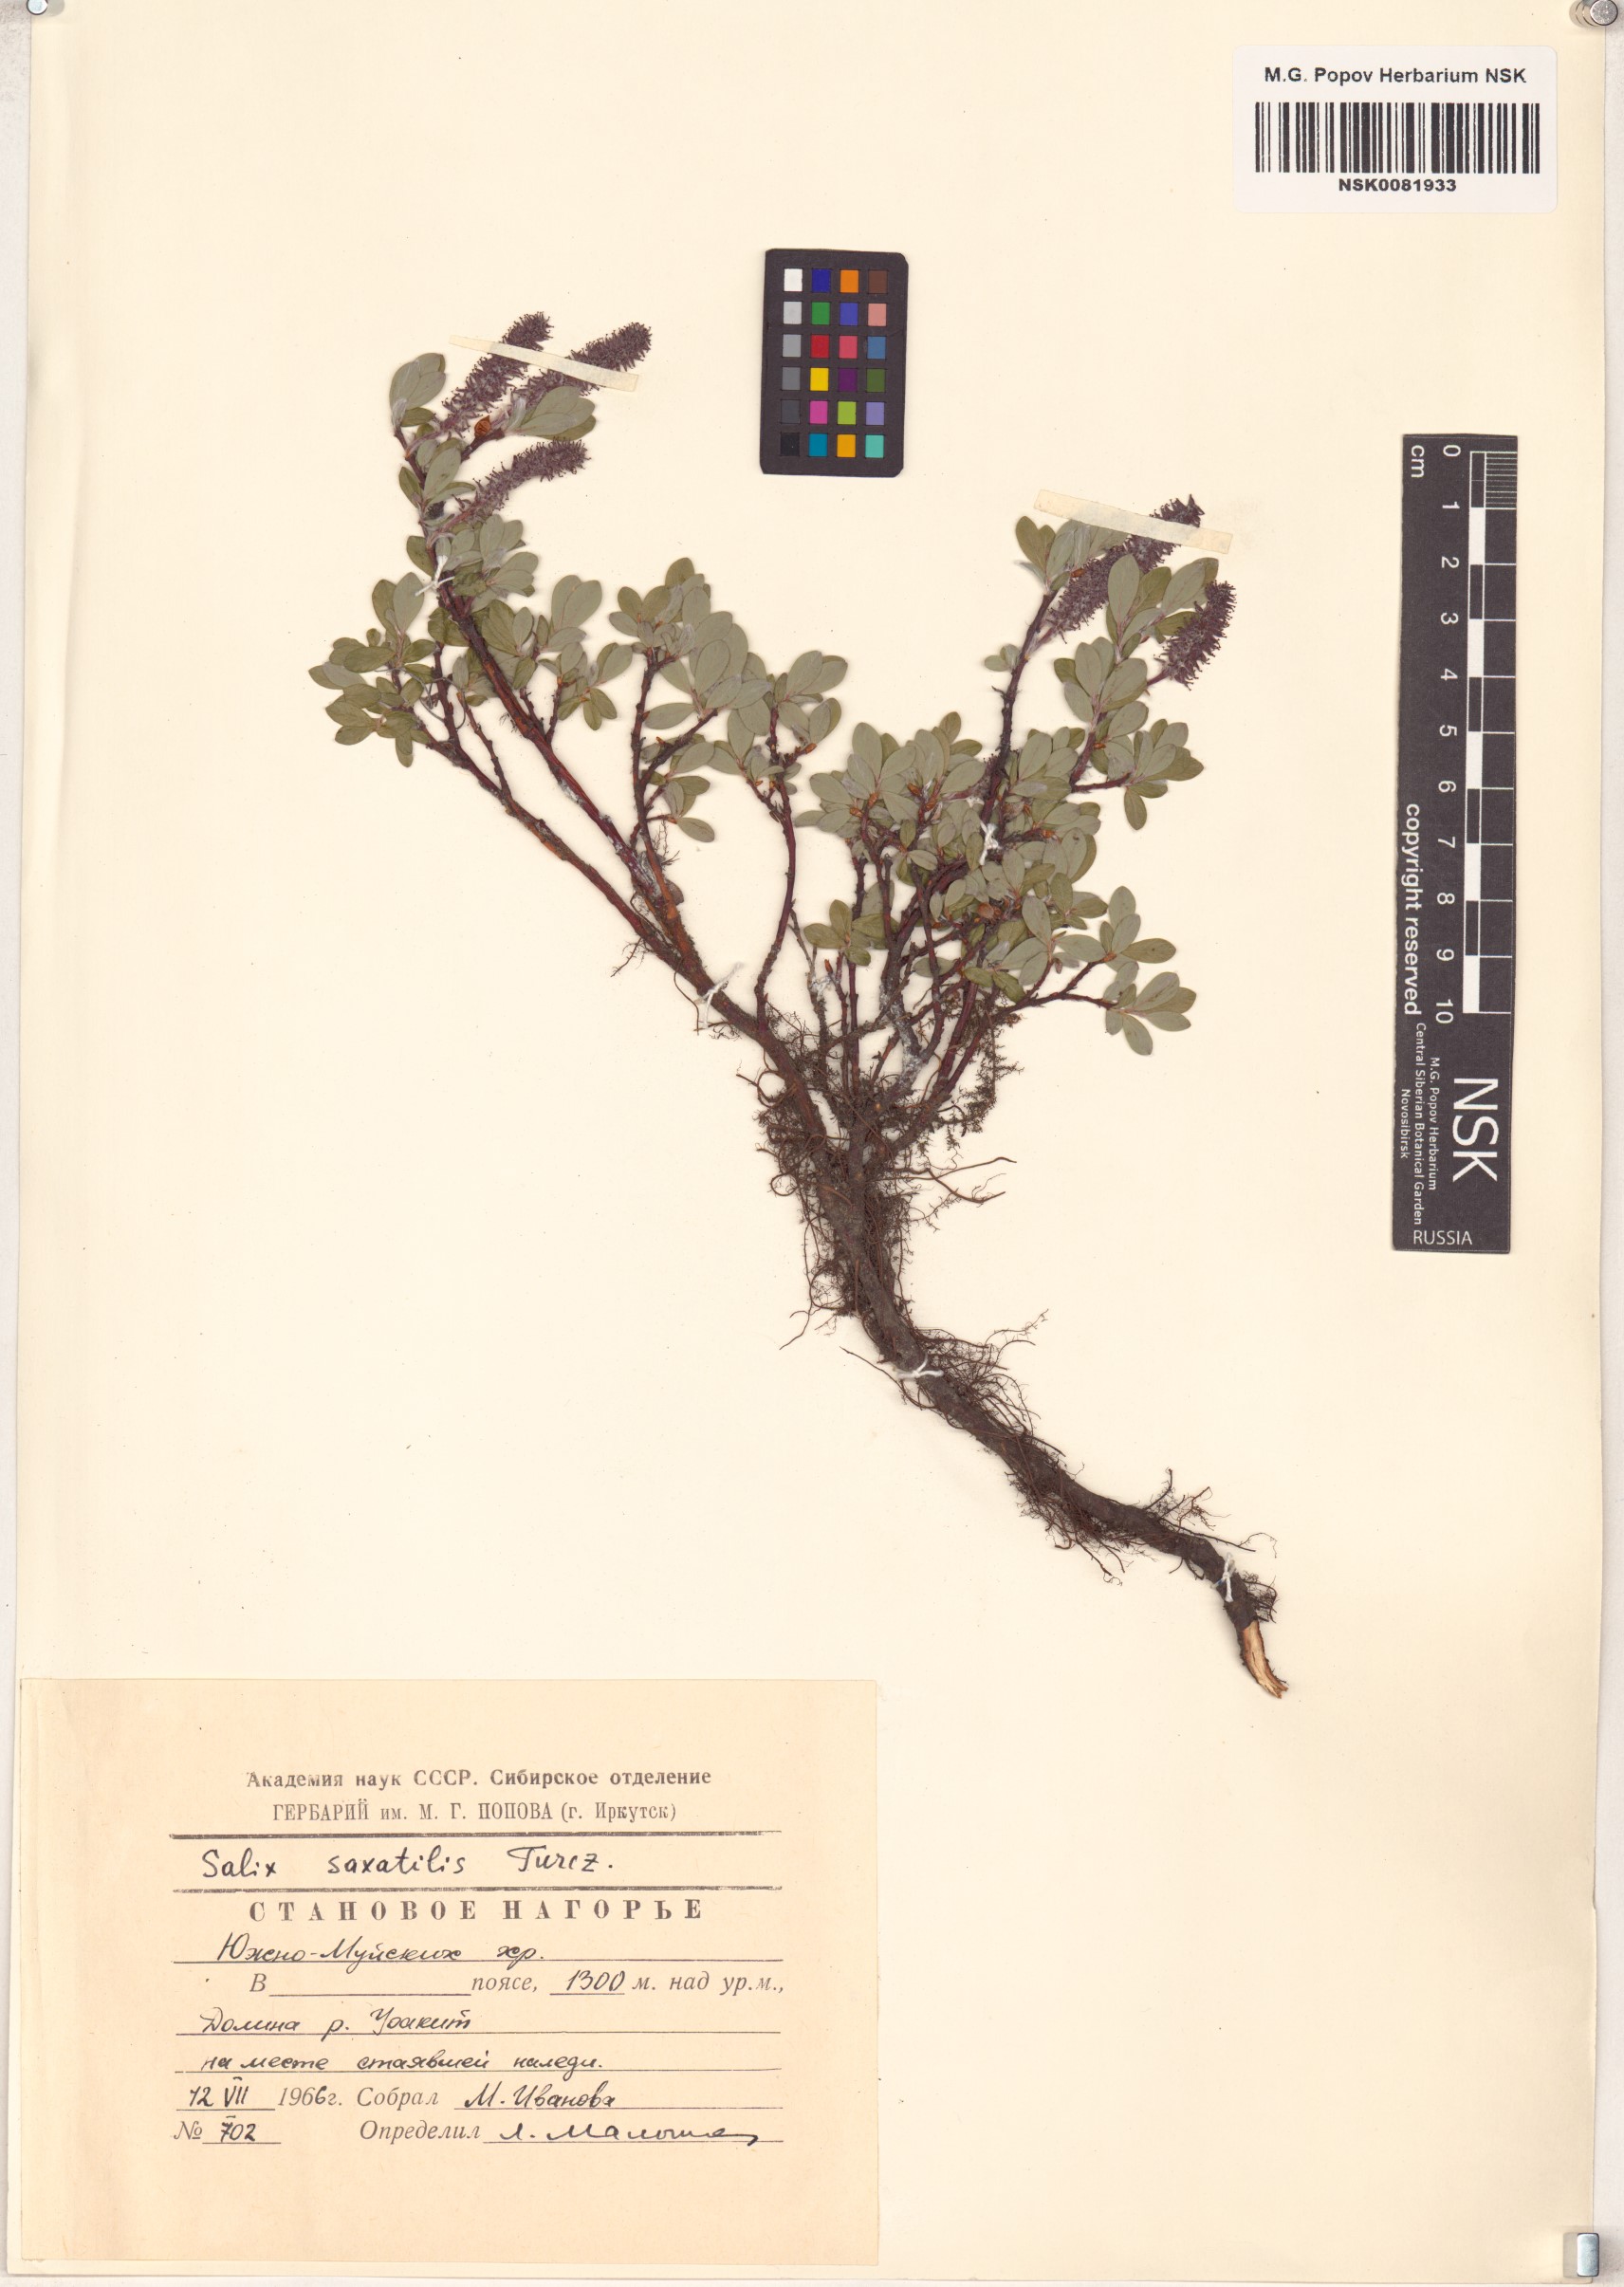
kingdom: Plantae
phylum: Tracheophyta
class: Magnoliopsida
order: Malpighiales
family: Salicaceae
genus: Salix
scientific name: Salix saxatilis
